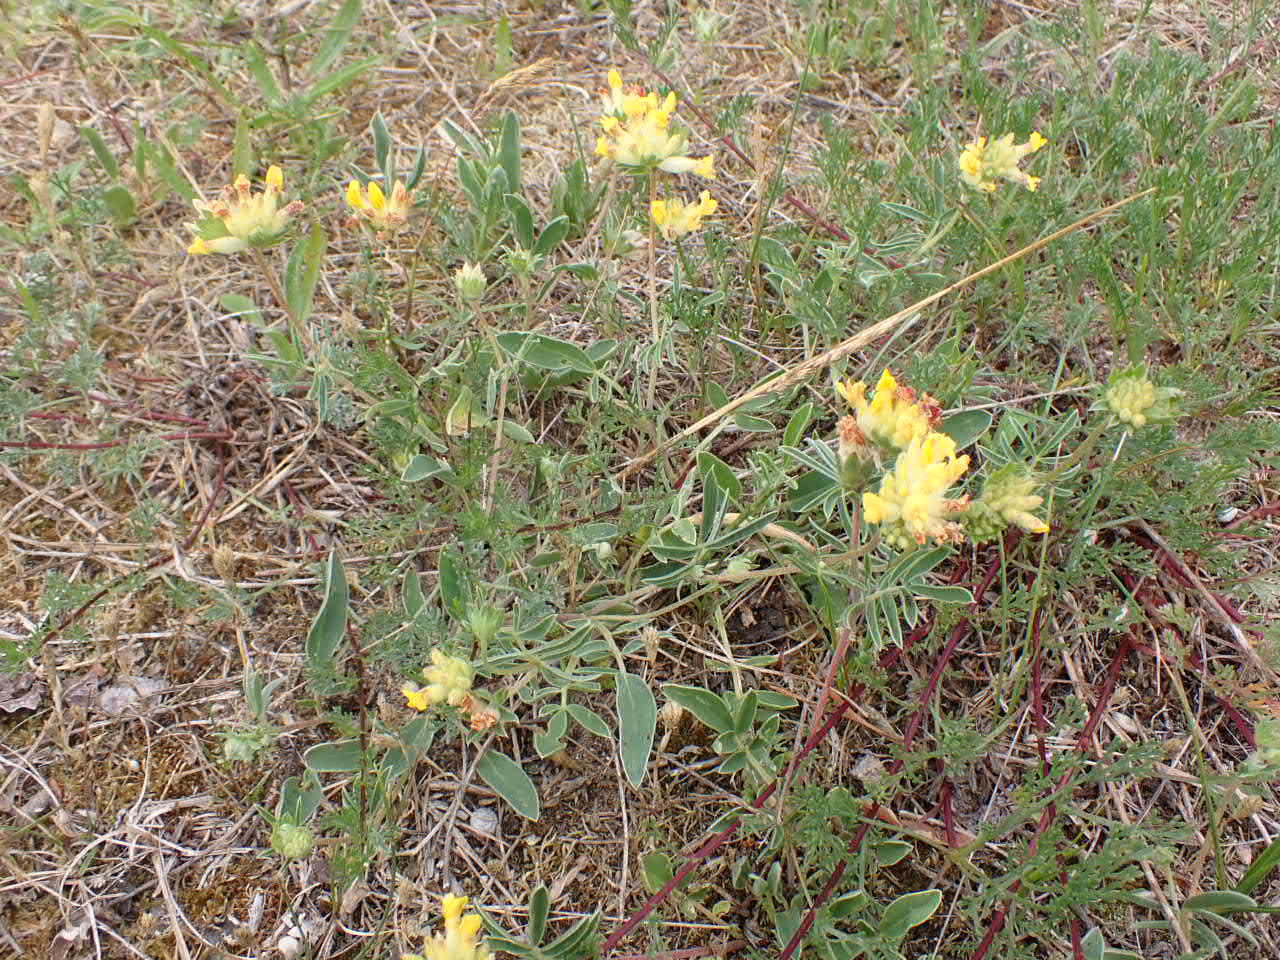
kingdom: Plantae
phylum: Tracheophyta
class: Magnoliopsida
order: Fabales
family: Fabaceae
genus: Anthyllis
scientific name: Anthyllis vulneraria
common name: Rundbælg
